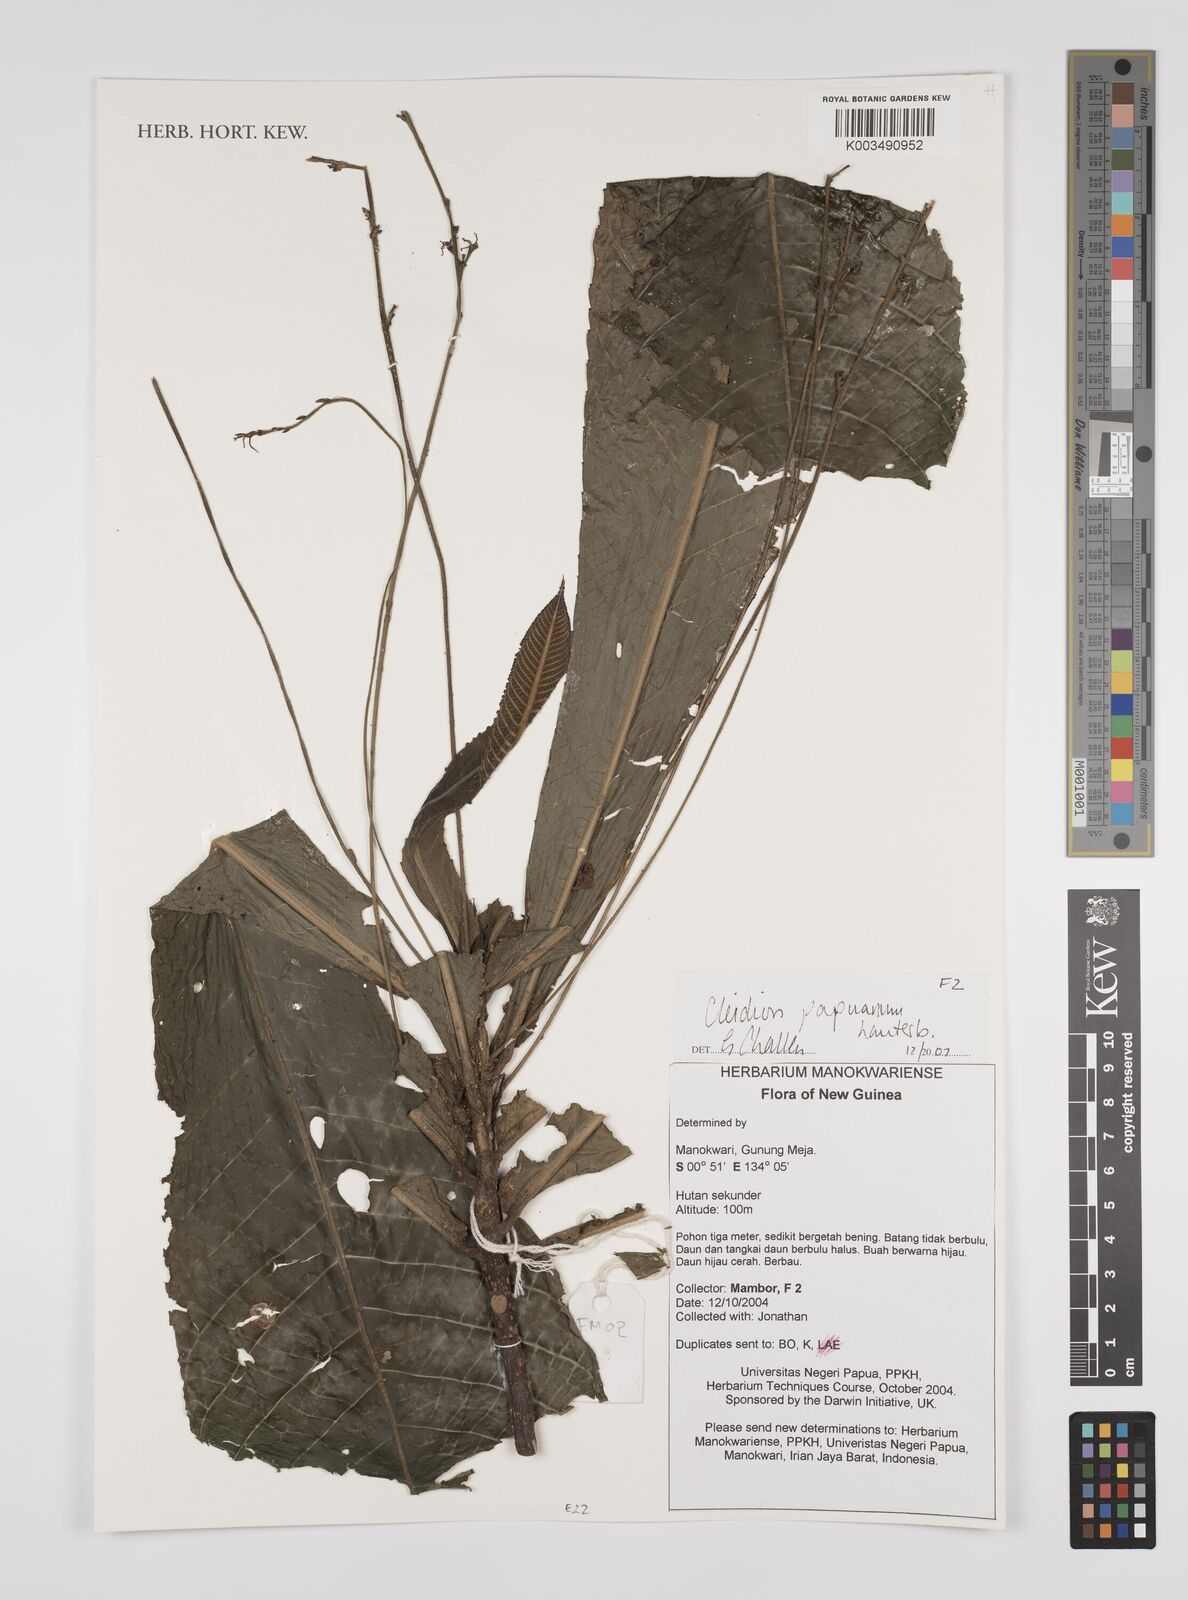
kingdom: Plantae
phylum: Tracheophyta
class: Magnoliopsida
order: Malpighiales
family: Euphorbiaceae
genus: Cleidion
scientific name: Cleidion papuanum
